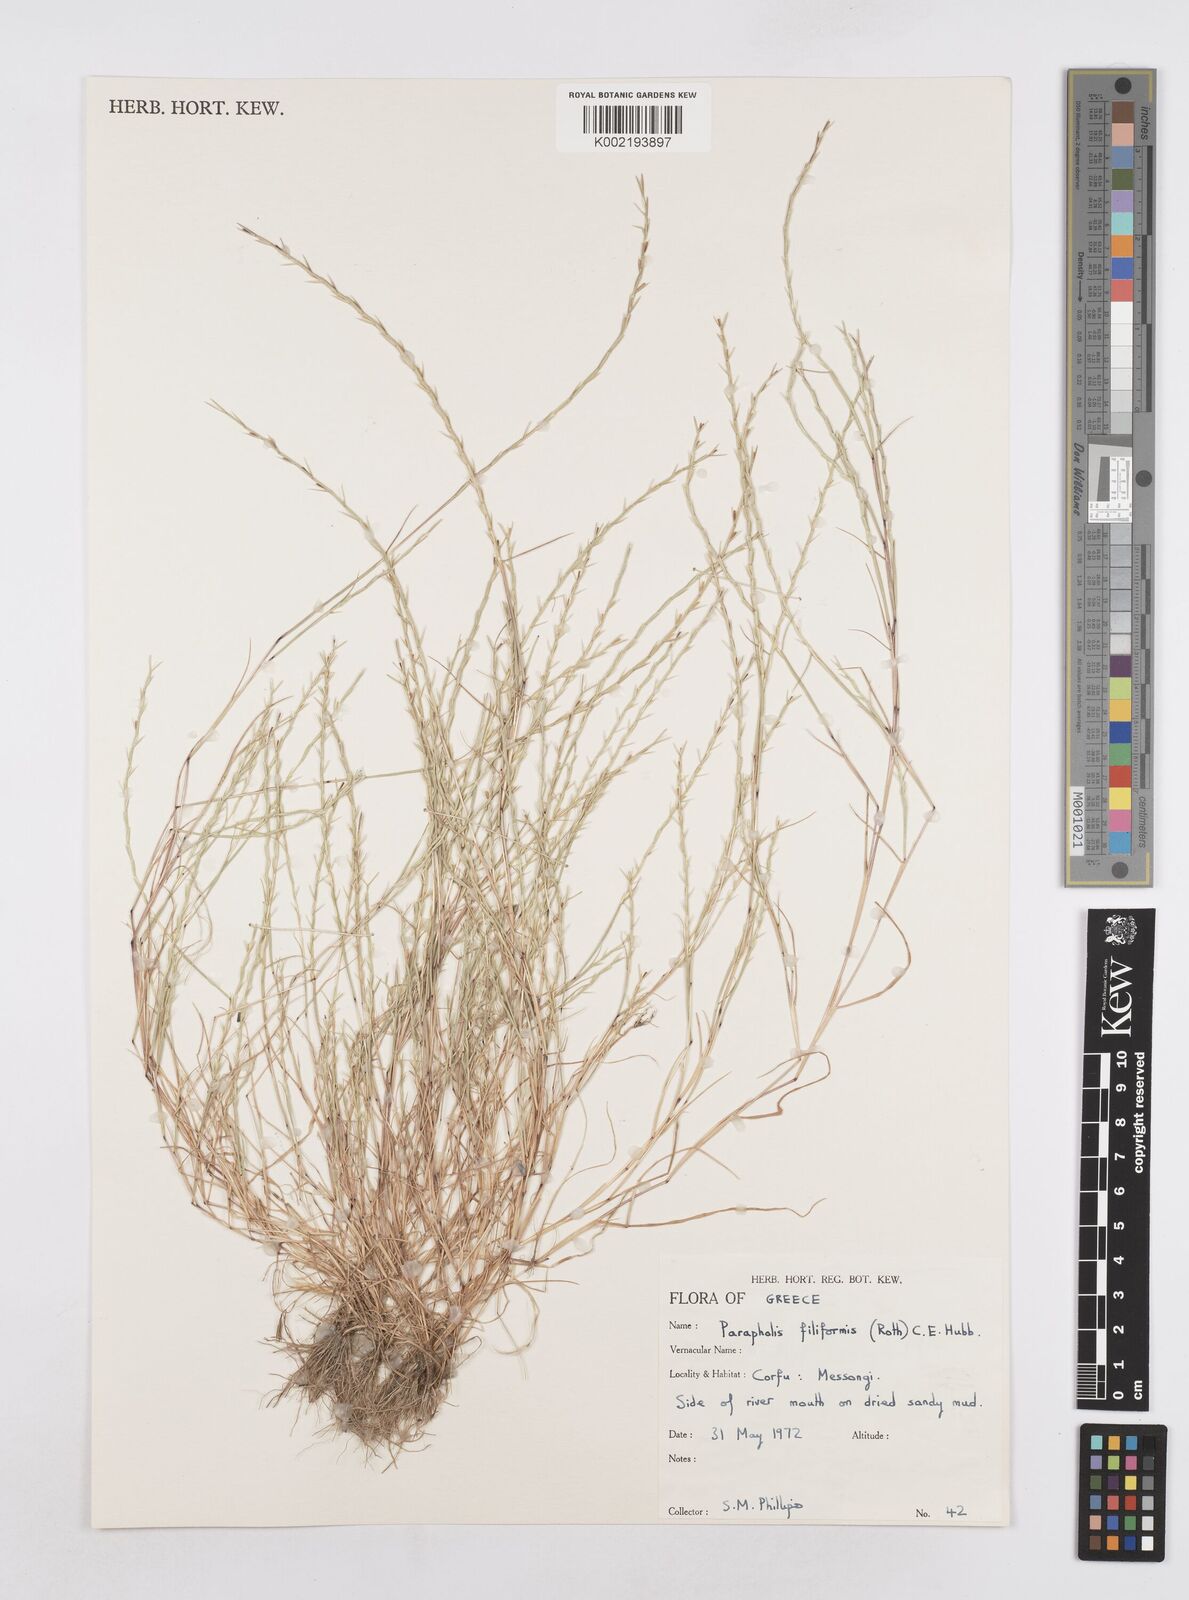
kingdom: Plantae
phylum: Tracheophyta
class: Liliopsida
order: Poales
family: Poaceae
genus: Parapholis
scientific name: Parapholis pycnantha
